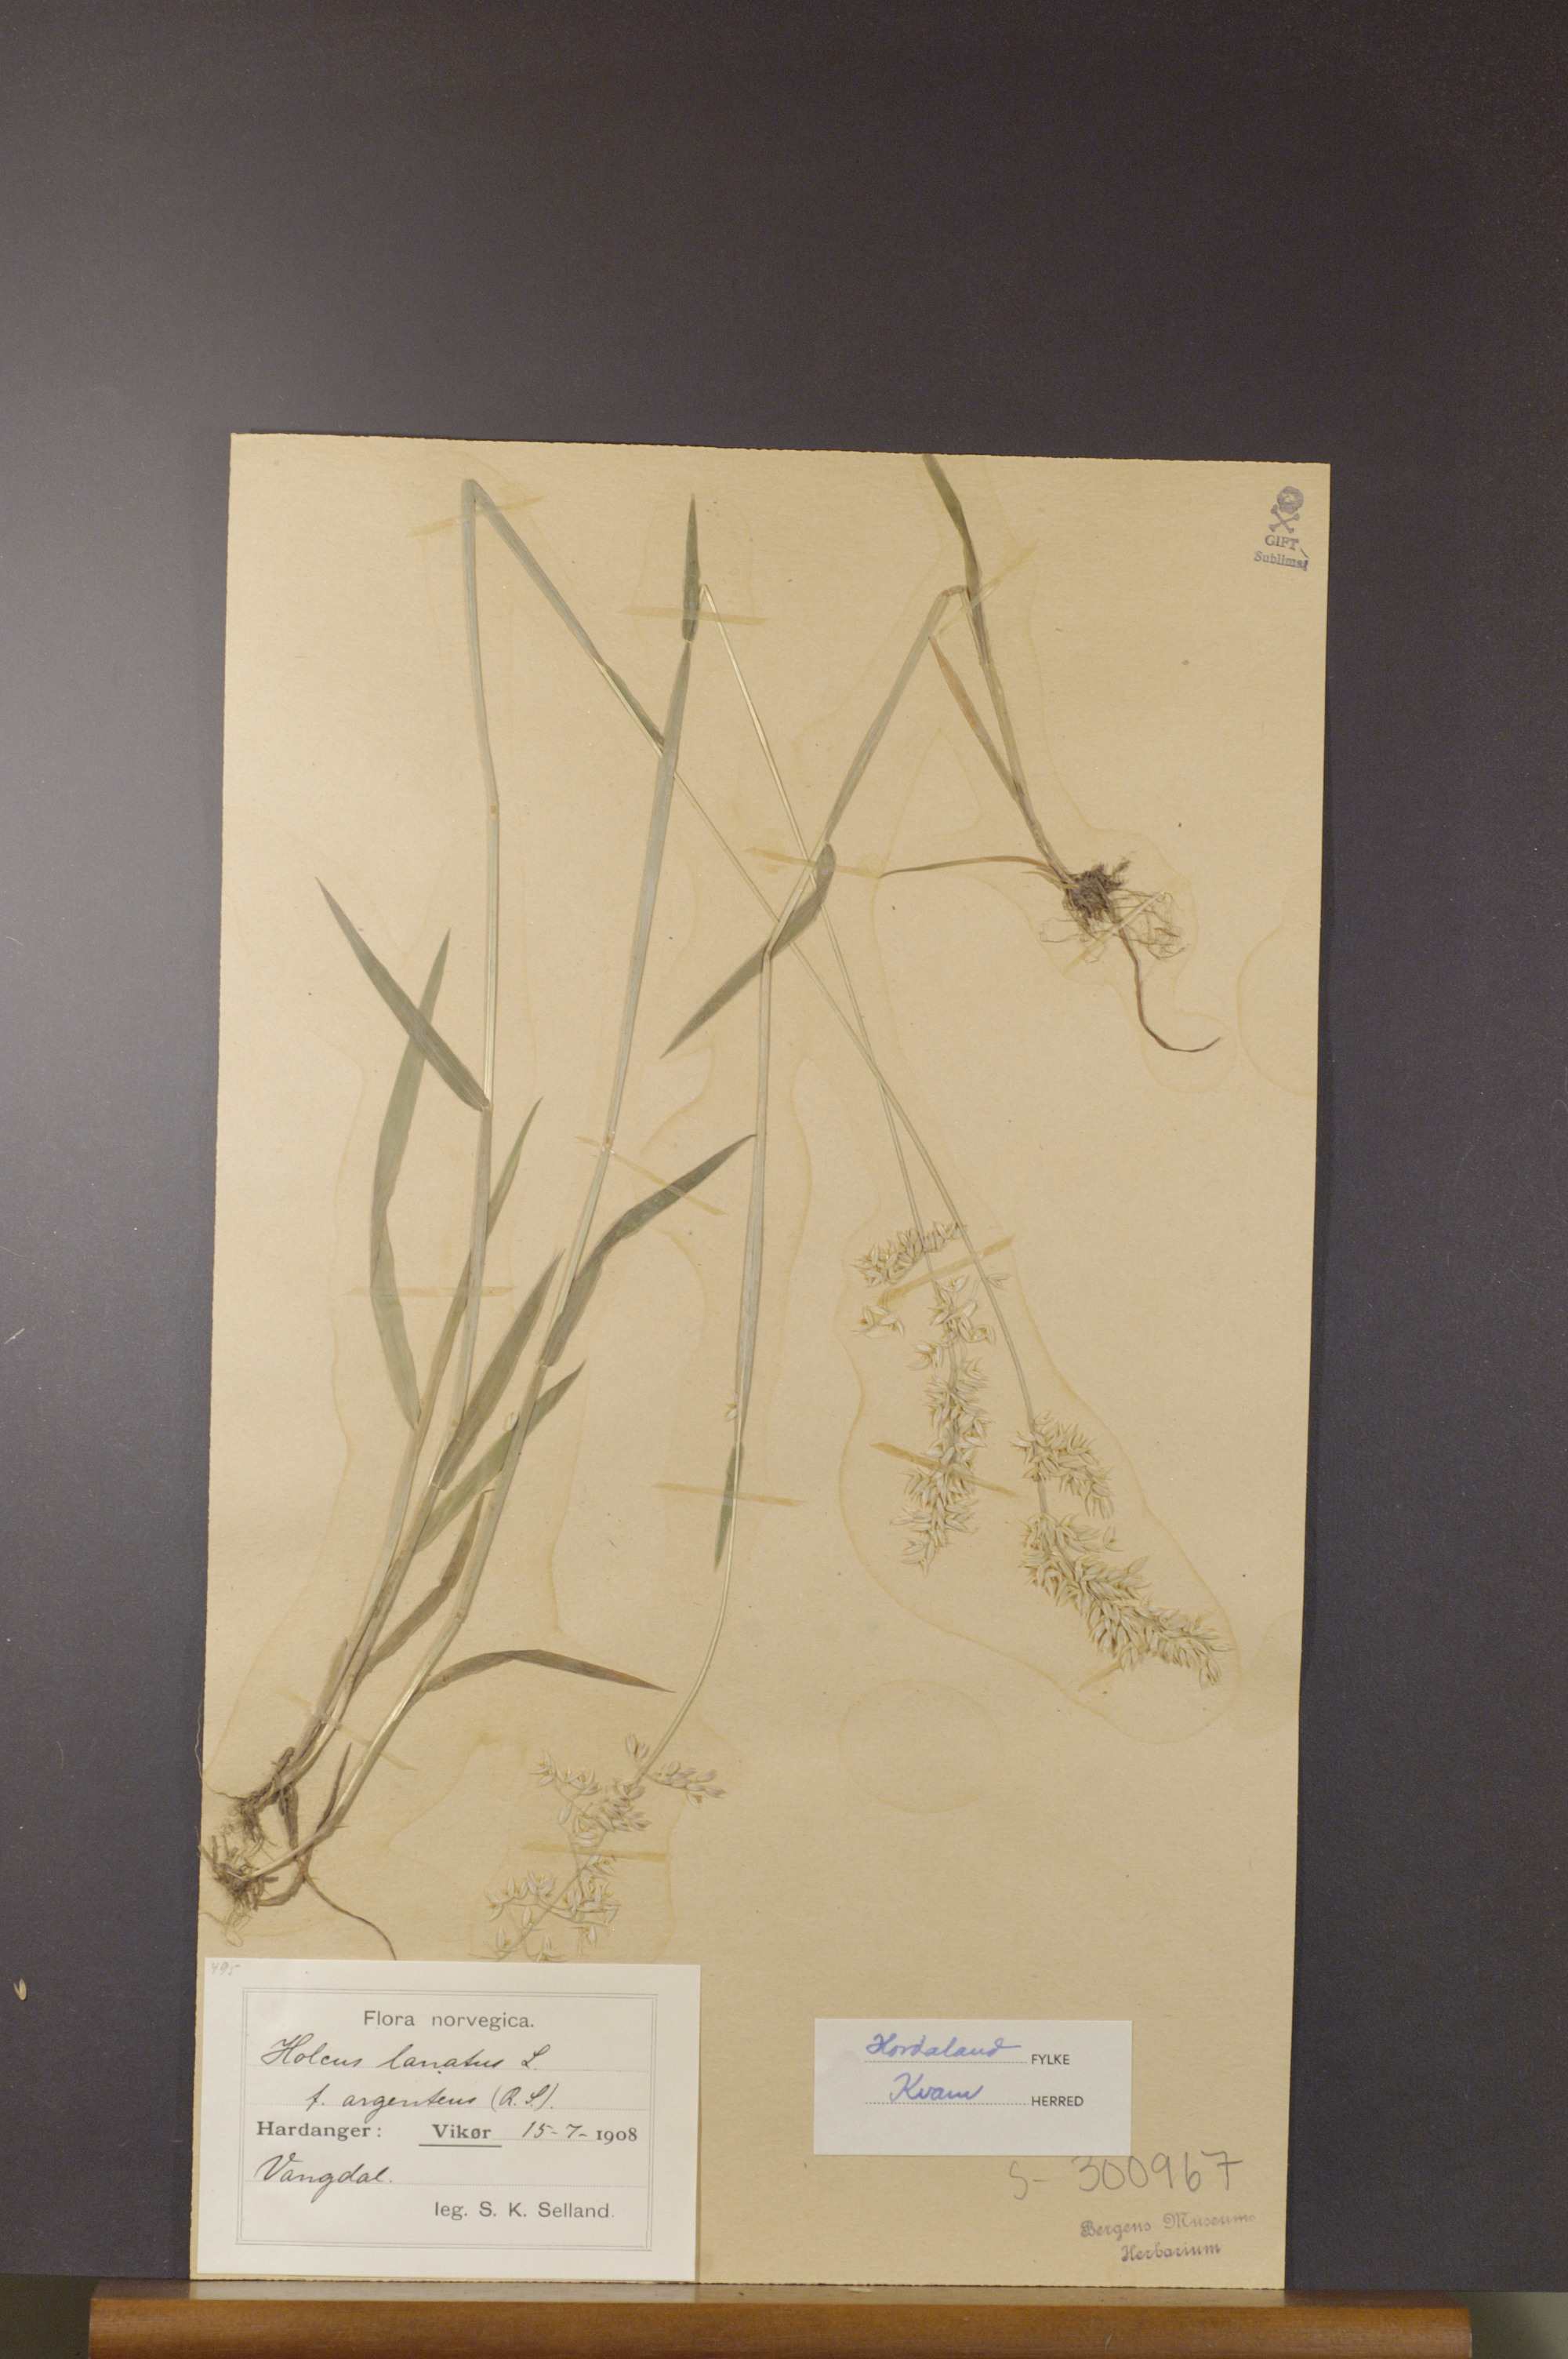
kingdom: Plantae
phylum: Tracheophyta
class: Liliopsida
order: Poales
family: Poaceae
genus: Holcus
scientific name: Holcus lanatus
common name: Yorkshire-fog
